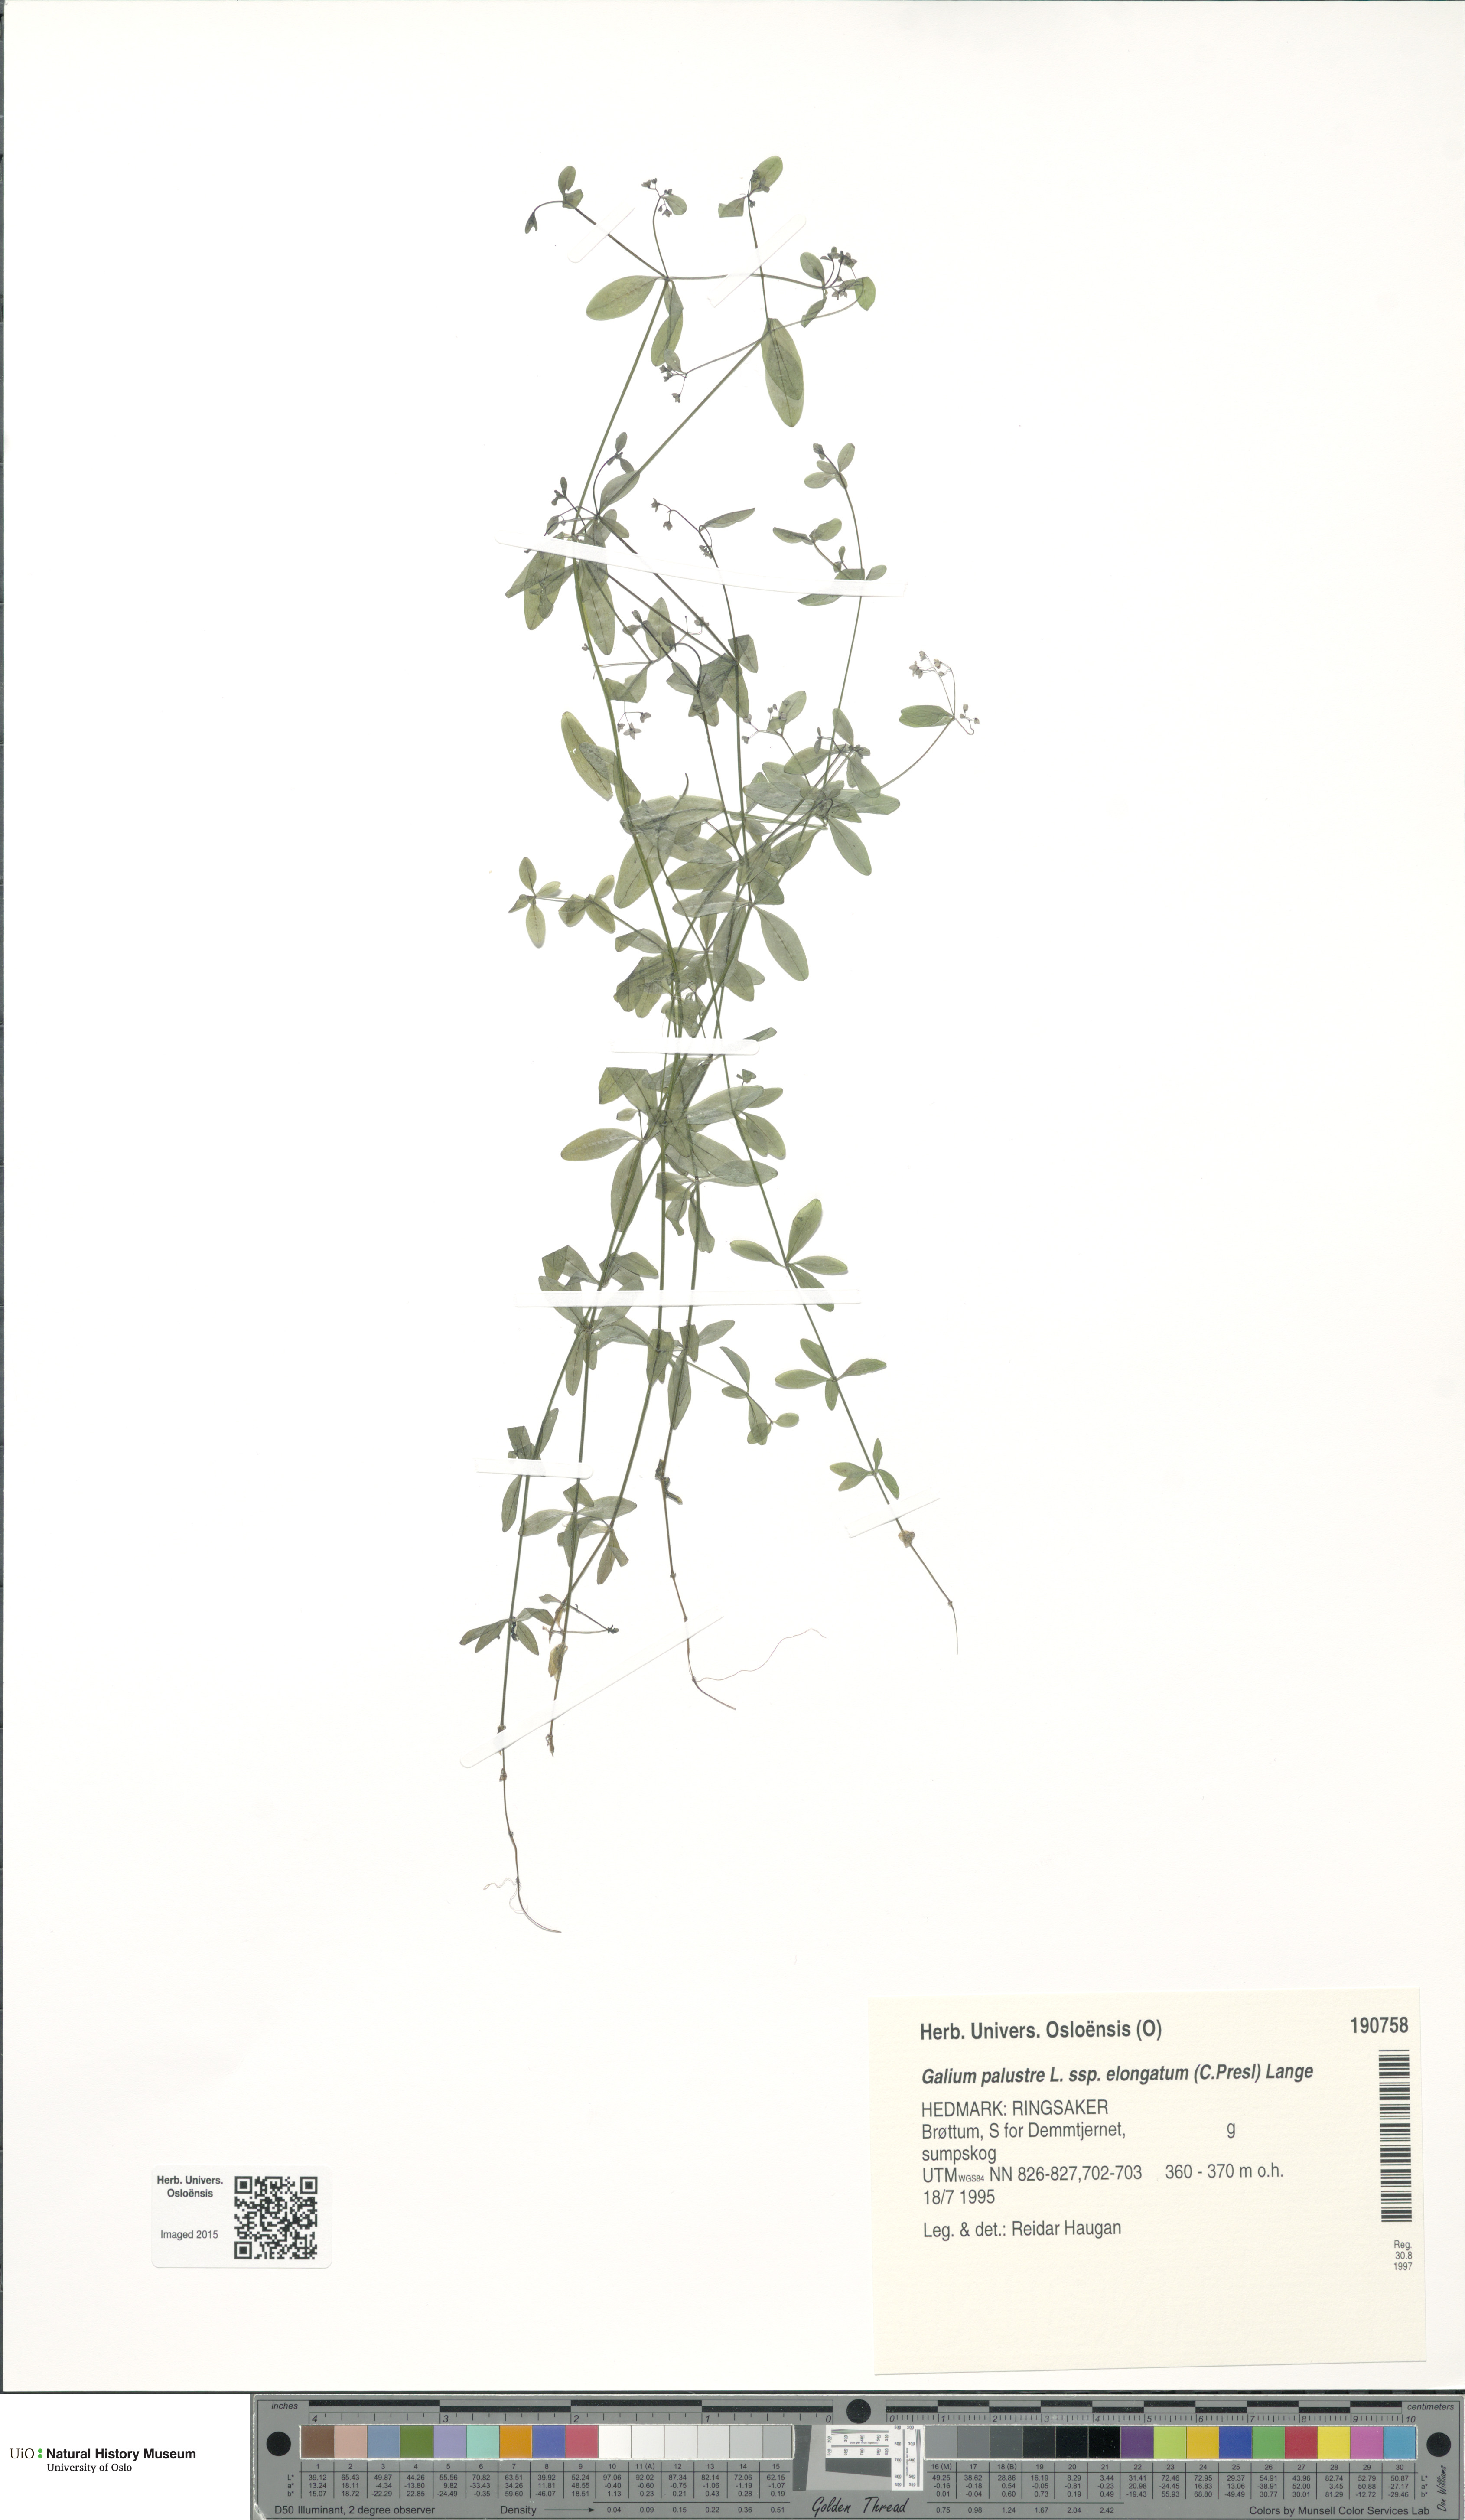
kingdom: Plantae
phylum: Tracheophyta
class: Magnoliopsida
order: Gentianales
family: Rubiaceae
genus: Galium
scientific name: Galium elongatum
